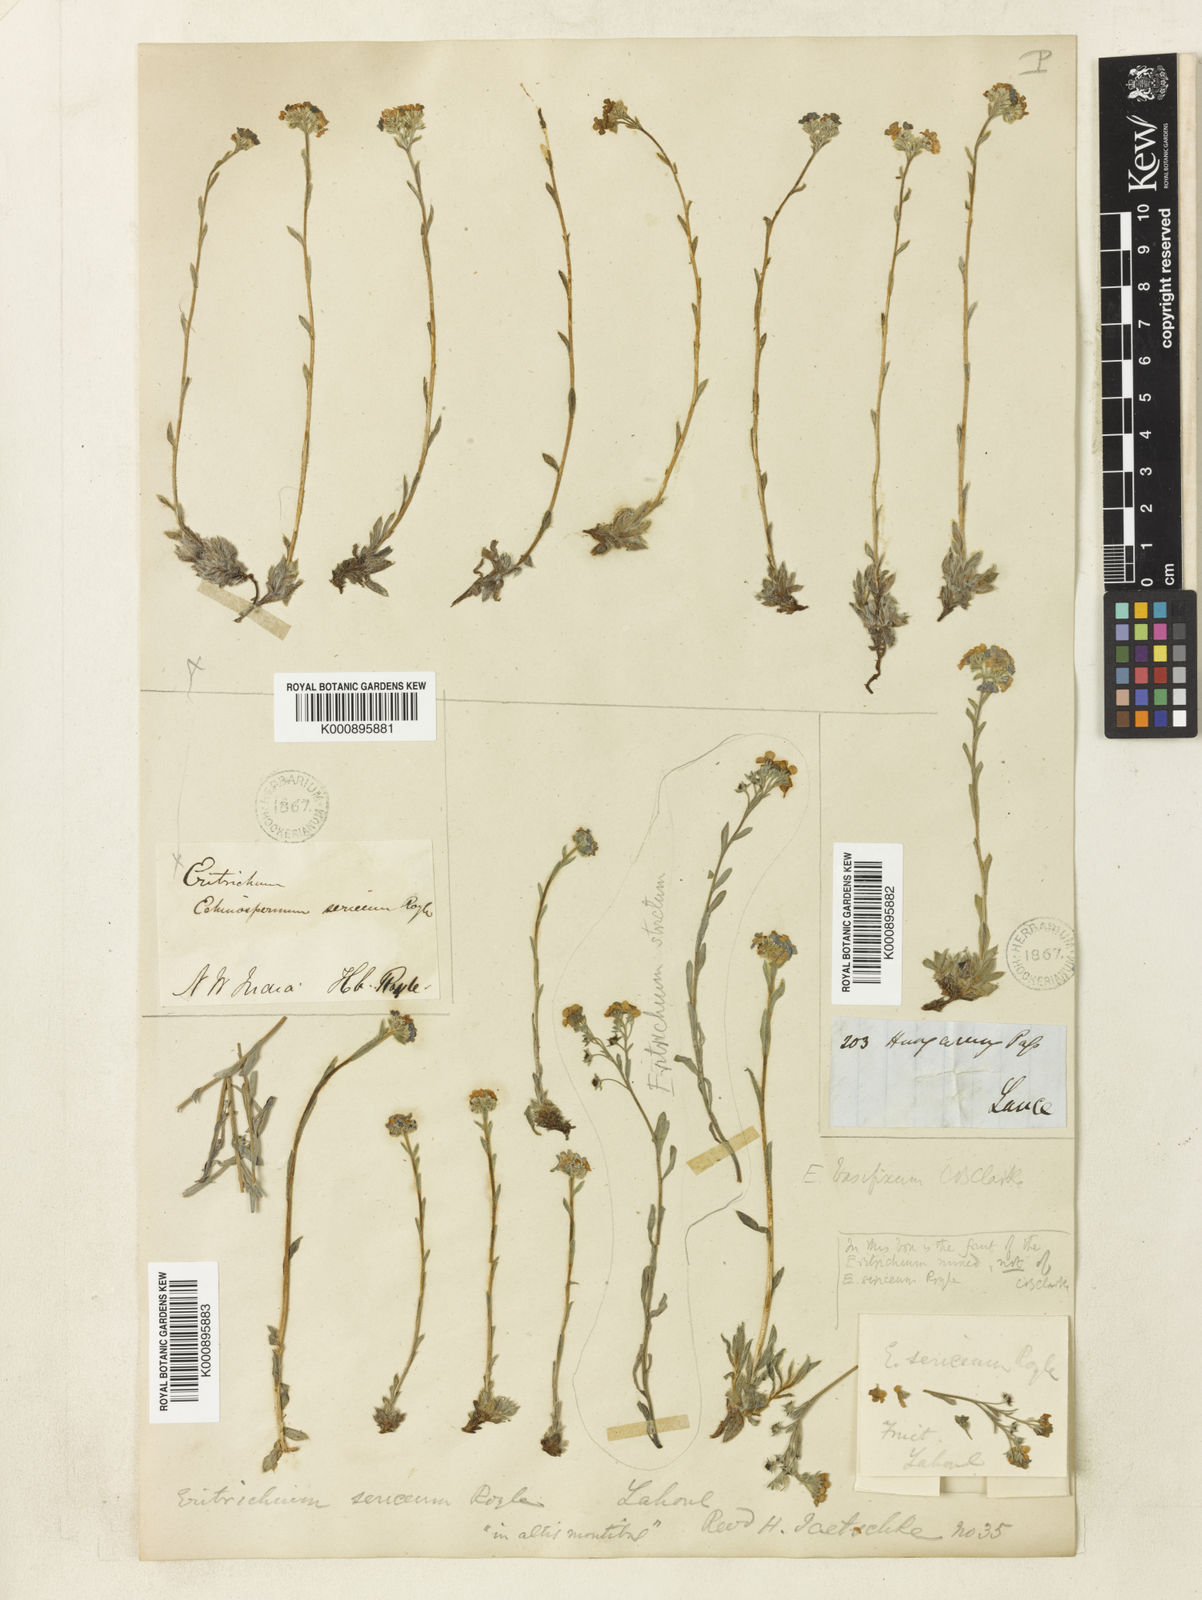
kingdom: Plantae
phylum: Tracheophyta
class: Magnoliopsida
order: Boraginales
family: Boraginaceae
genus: Eritrichium
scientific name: Eritrichium nanum
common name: King-of-the-alps
